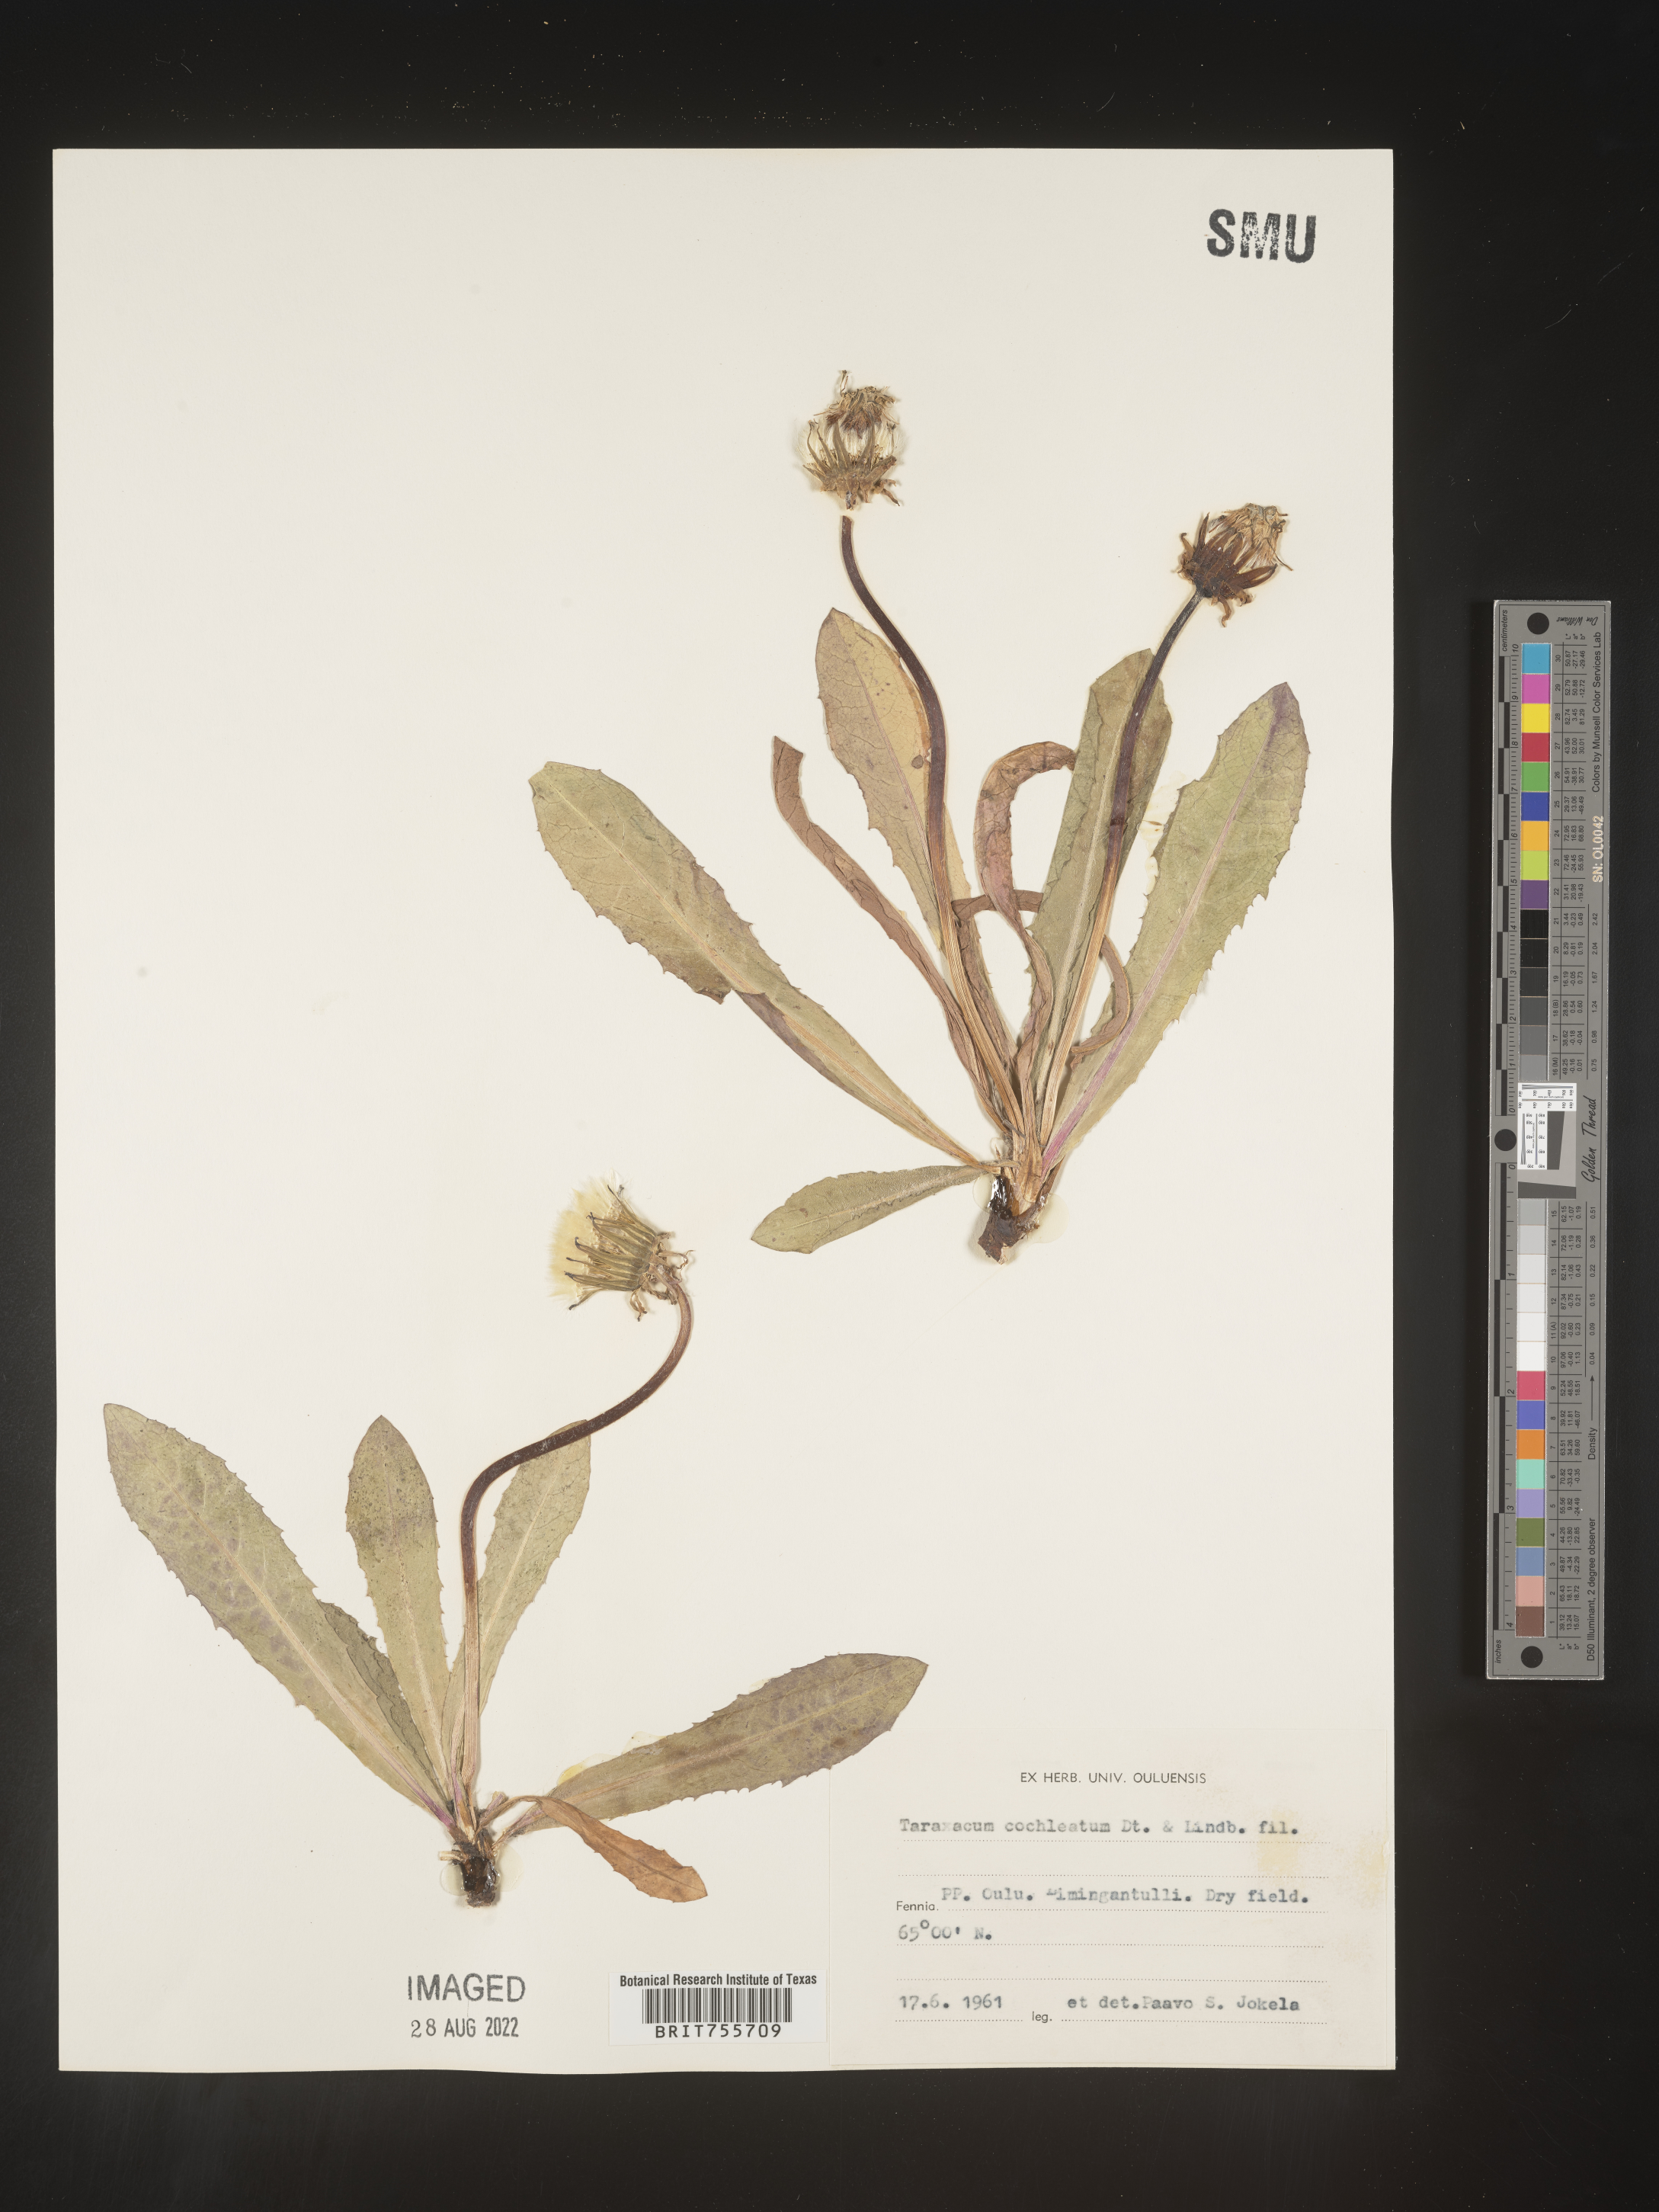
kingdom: Plantae
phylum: Tracheophyta
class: Magnoliopsida
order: Asterales
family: Asteraceae
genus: Taraxacum
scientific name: Taraxacum
